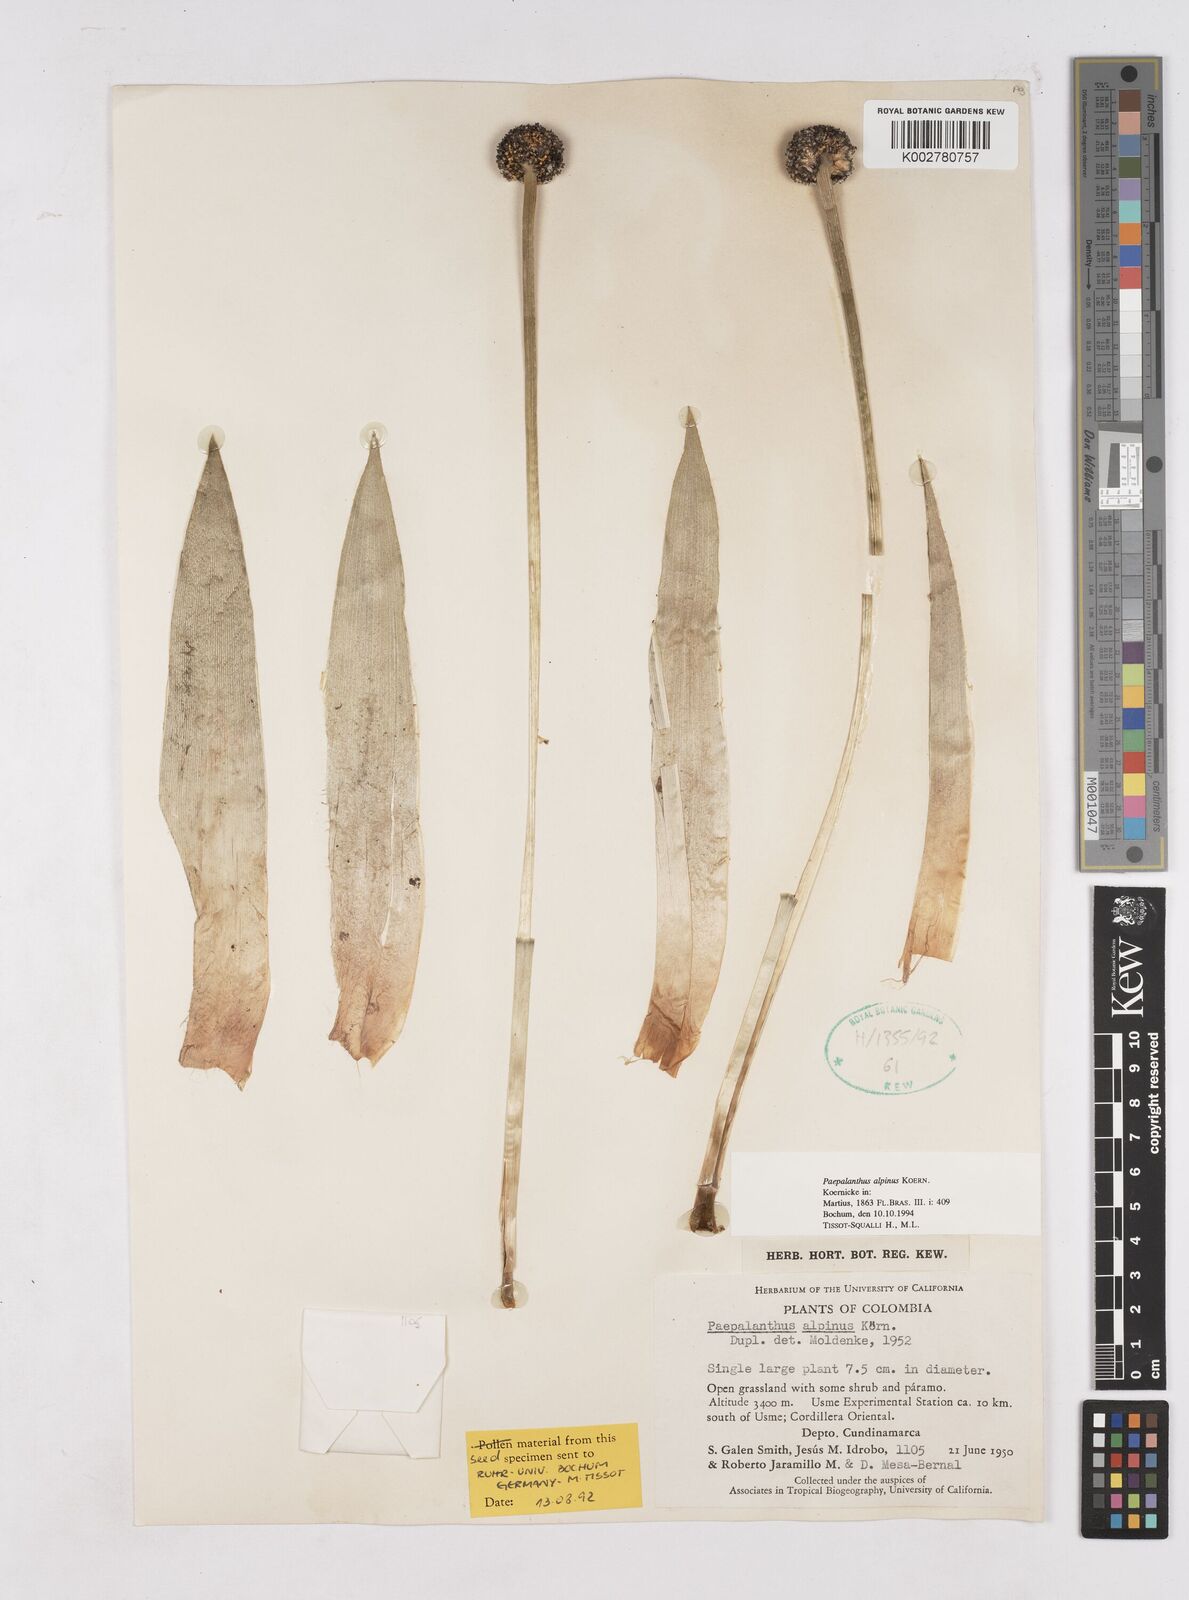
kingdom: Plantae
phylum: Tracheophyta
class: Liliopsida
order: Poales
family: Eriocaulaceae
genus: Paepalanthus
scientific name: Paepalanthus alpinus
